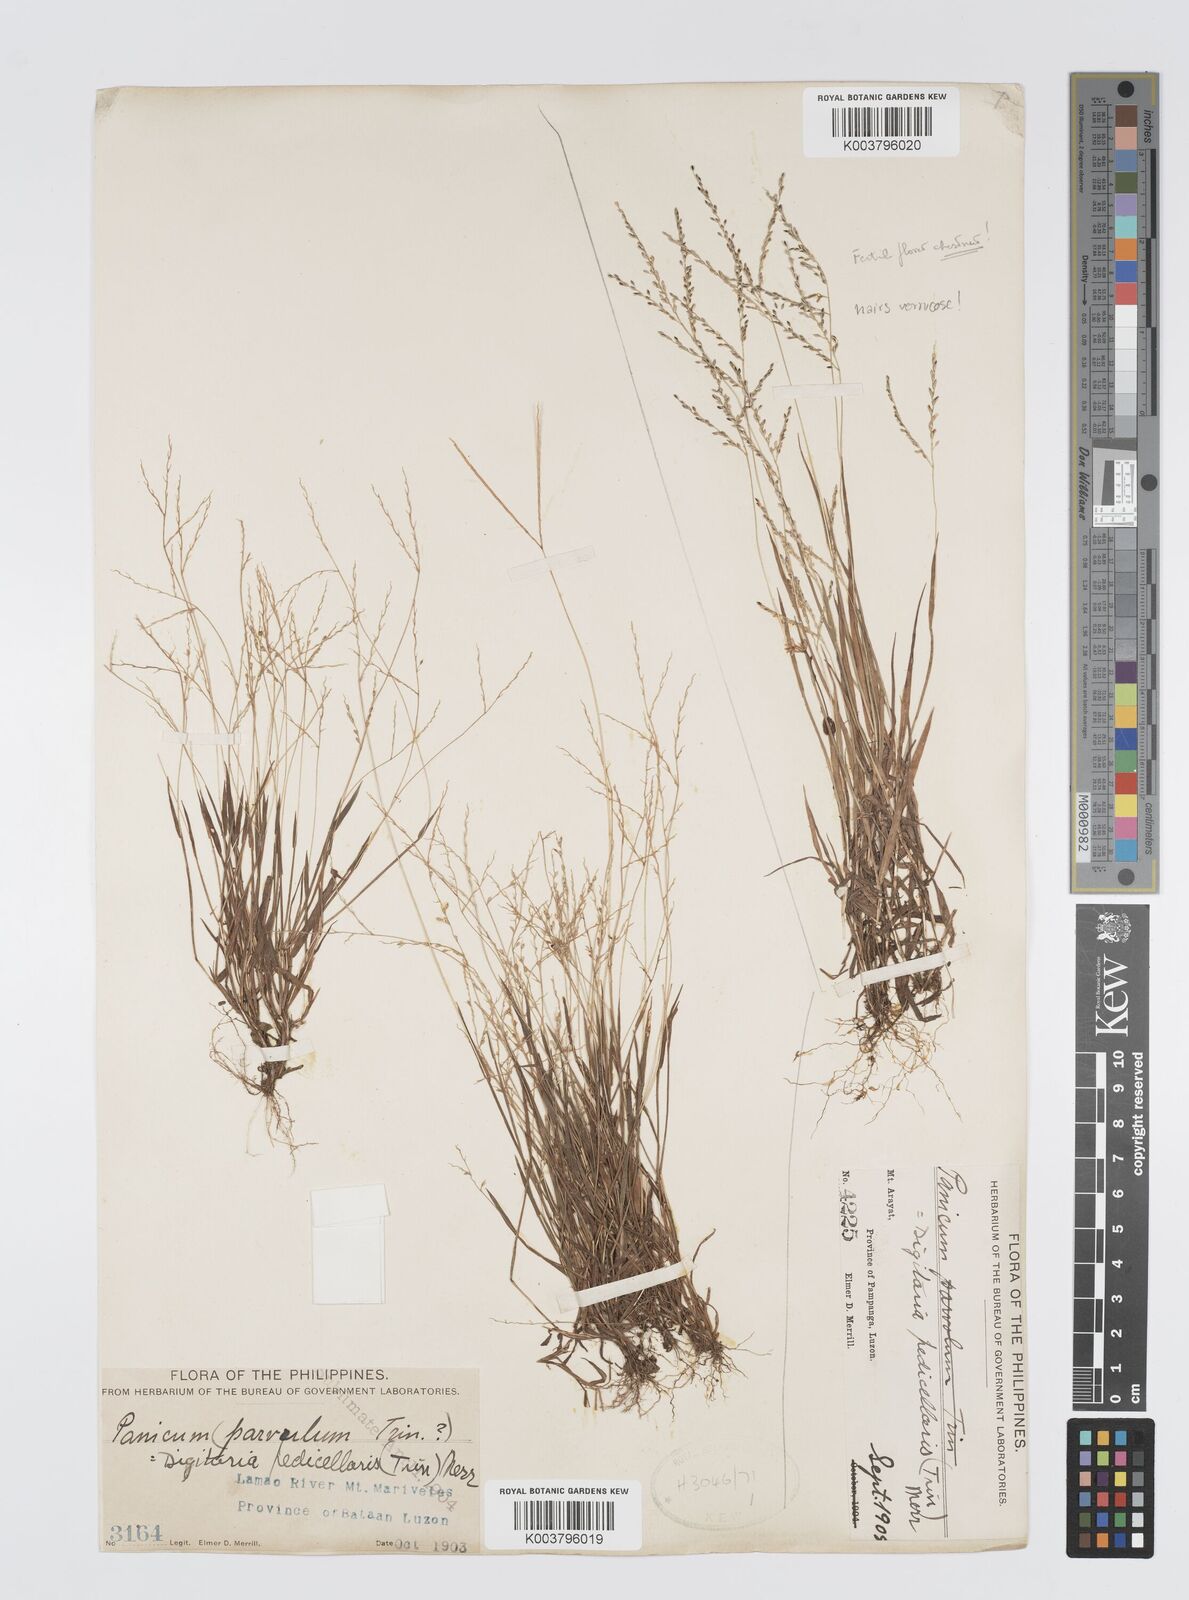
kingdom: Plantae
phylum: Tracheophyta
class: Liliopsida
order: Poales
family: Poaceae
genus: Digitaria
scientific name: Digitaria abludens
